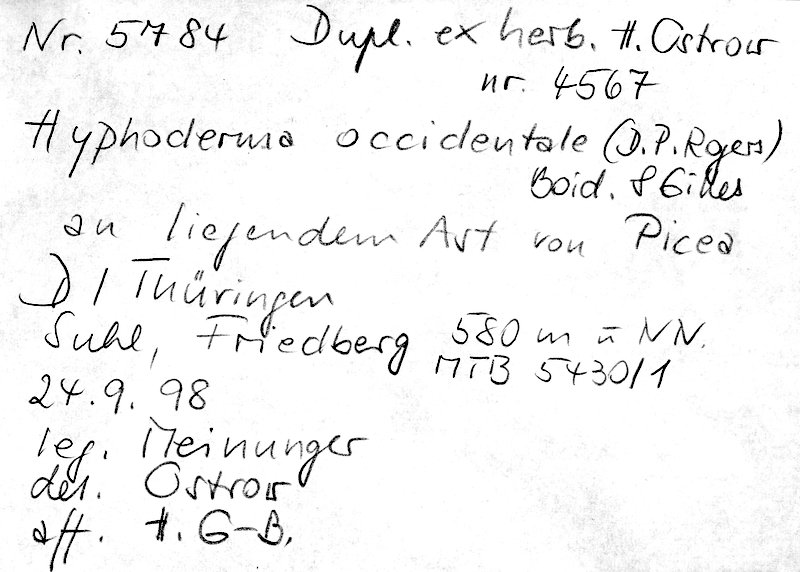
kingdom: Plantae
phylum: Tracheophyta
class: Pinopsida
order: Pinales
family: Pinaceae
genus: Picea
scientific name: Picea
